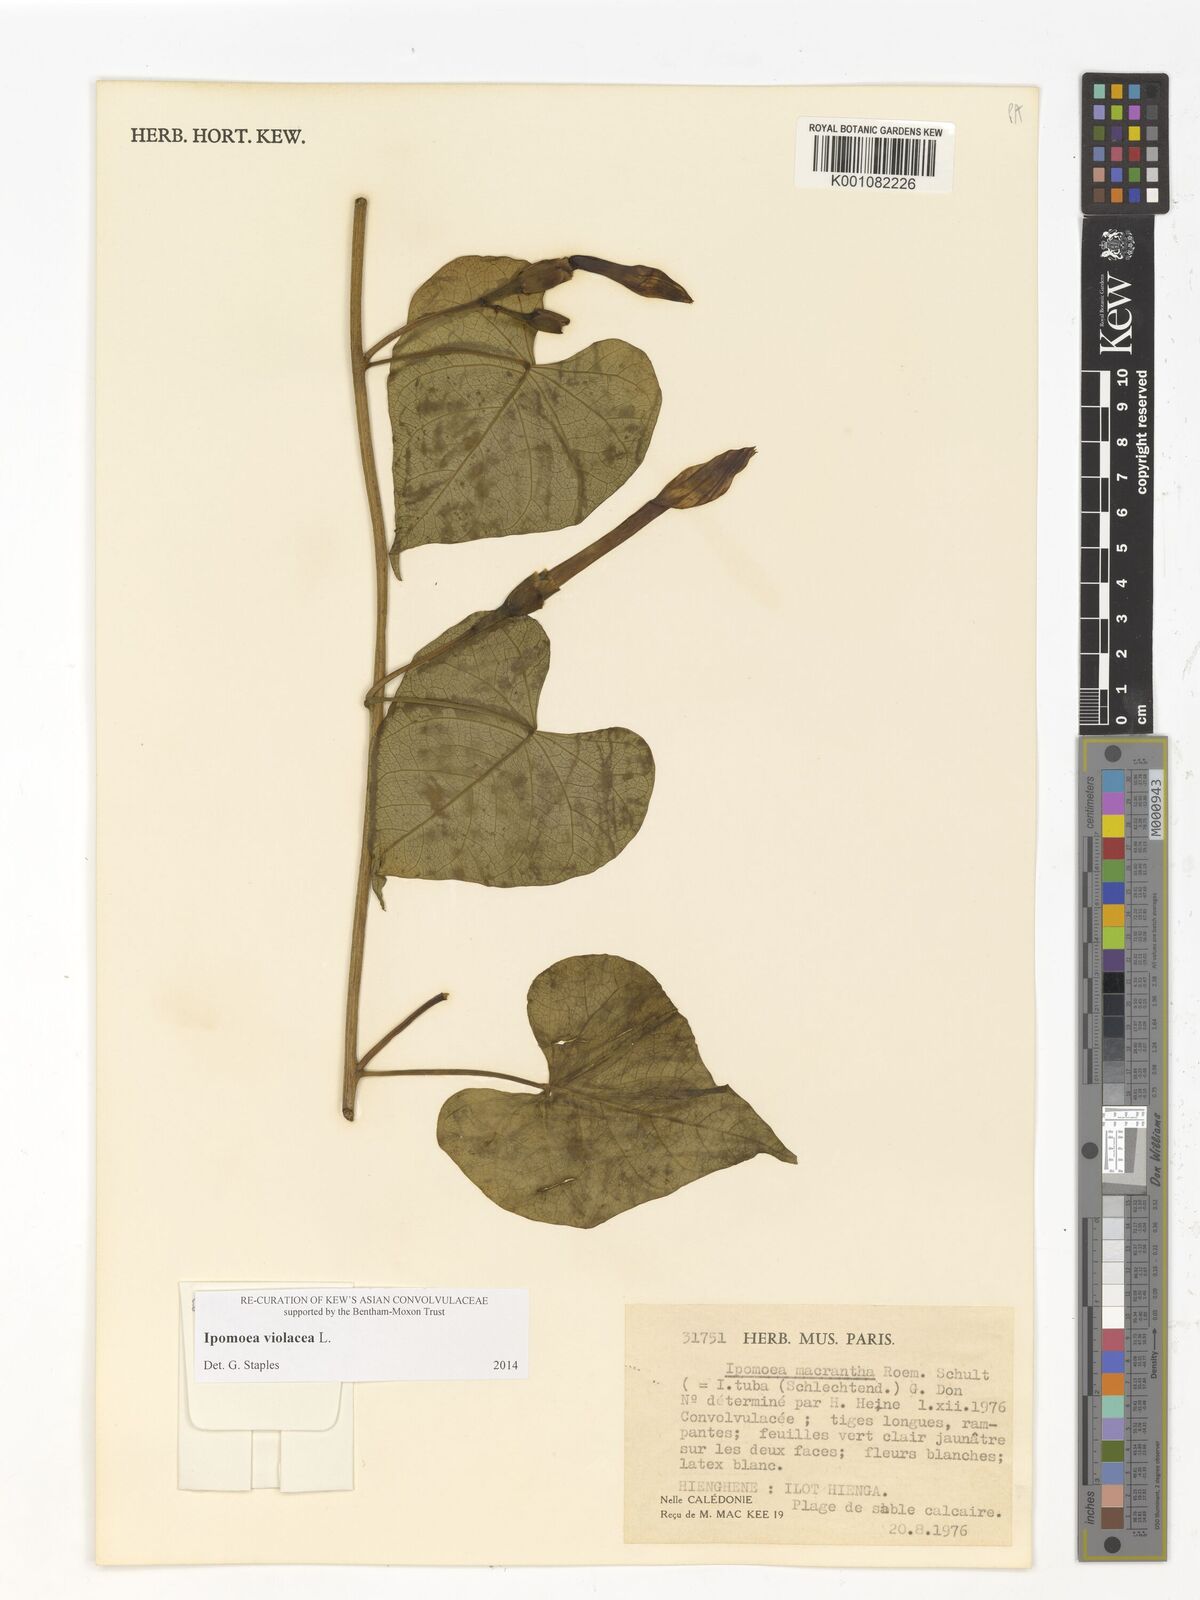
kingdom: Plantae
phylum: Tracheophyta
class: Magnoliopsida
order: Solanales
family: Convolvulaceae
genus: Ipomoea
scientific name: Ipomoea violacea
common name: Beach moonflower
